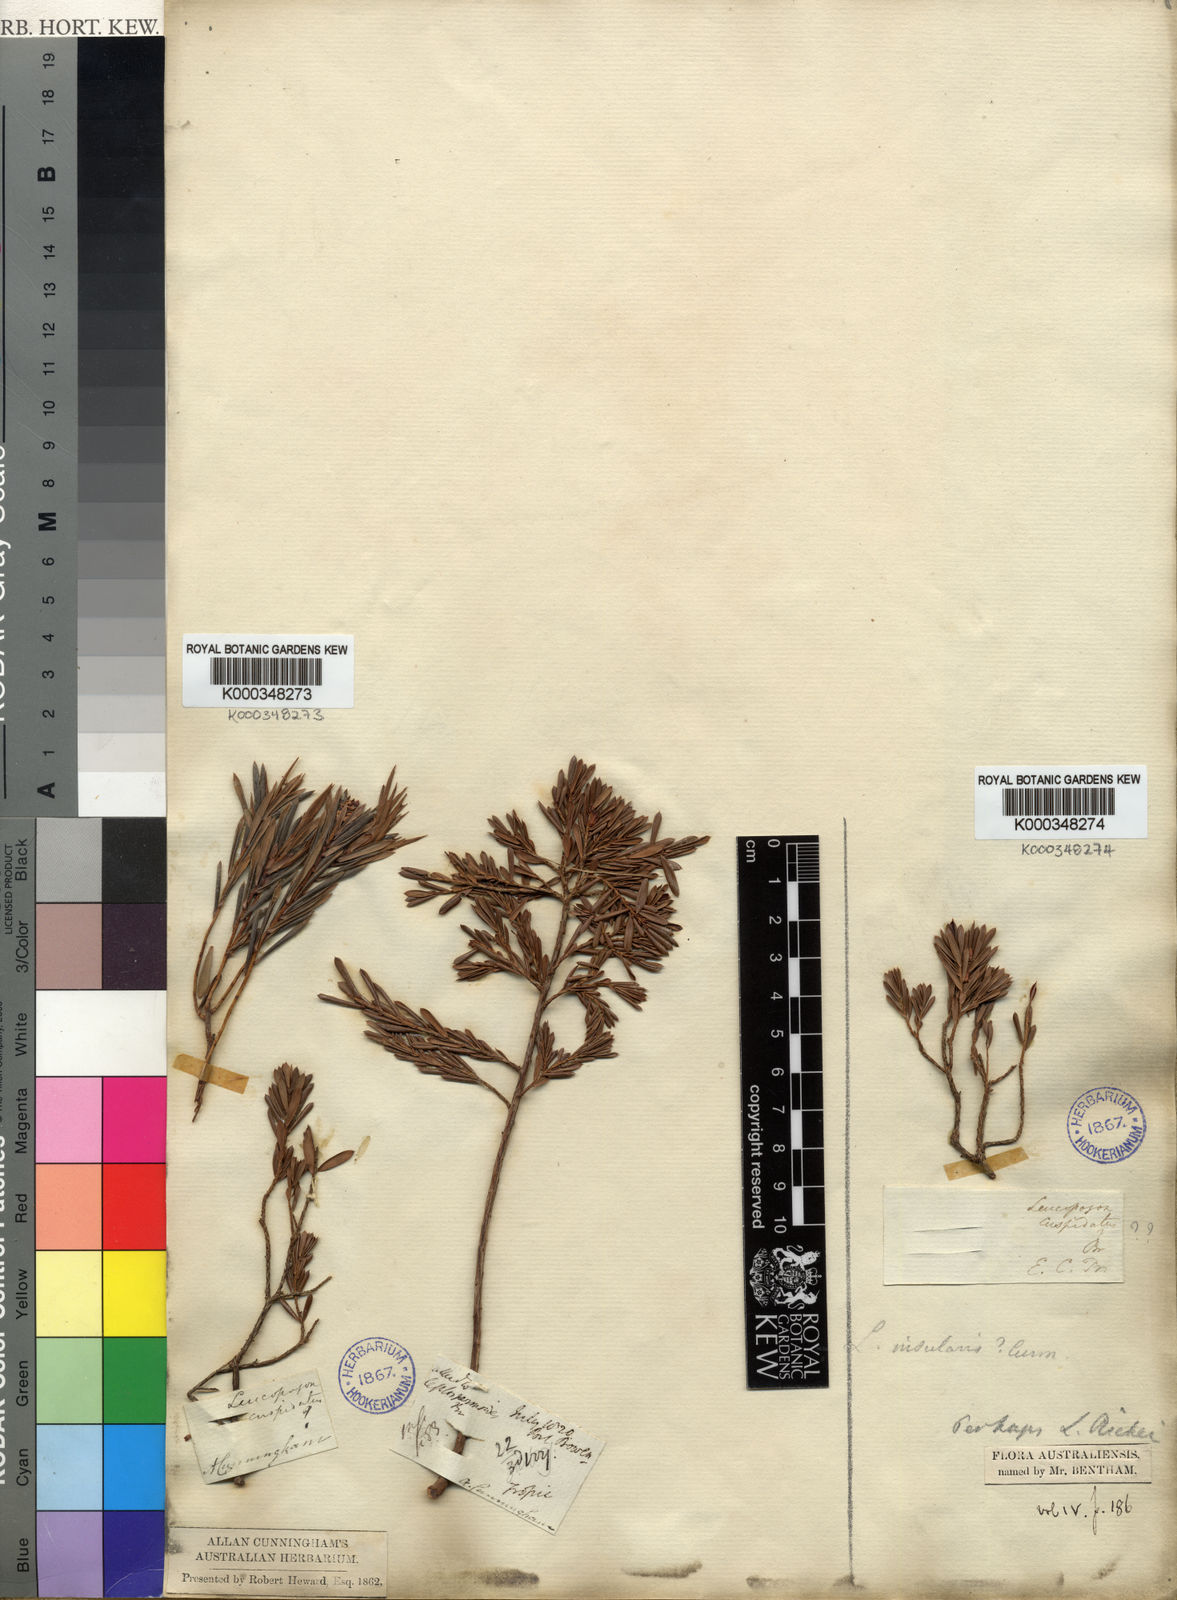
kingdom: Plantae
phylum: Tracheophyta
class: Magnoliopsida
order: Ericales
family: Ericaceae
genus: Styphelia
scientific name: Styphelia cuspidata
